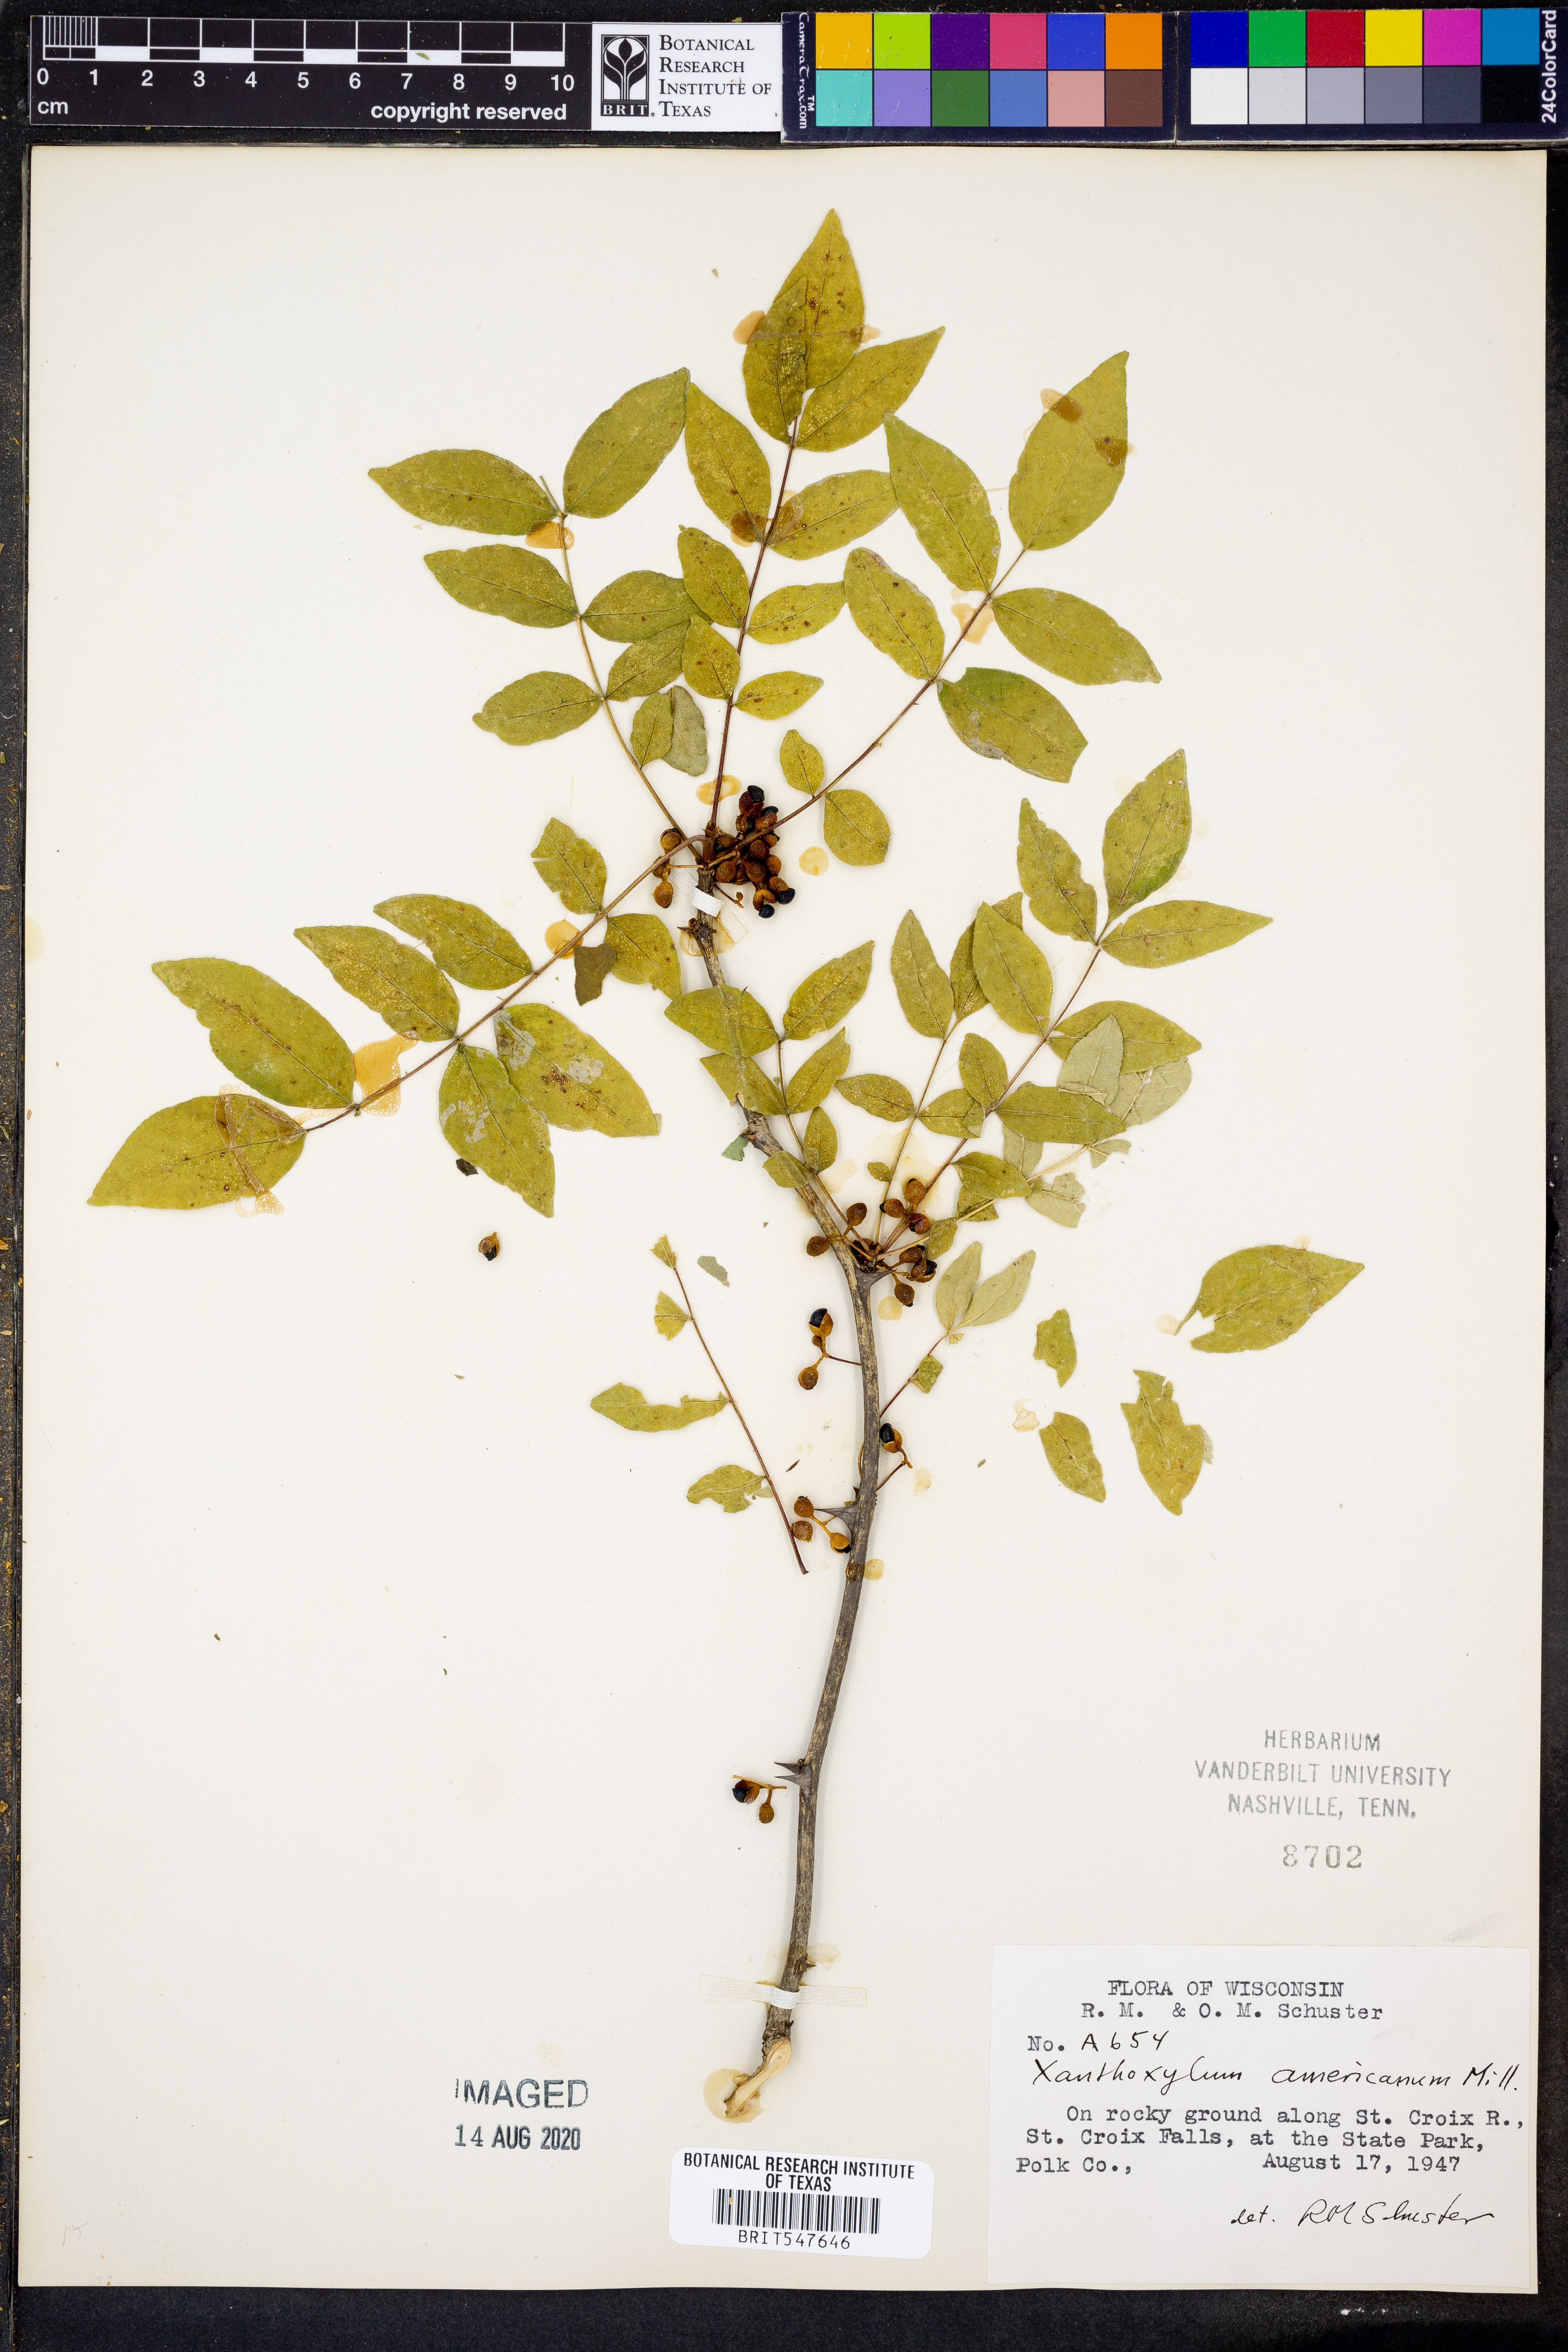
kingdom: Plantae
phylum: Tracheophyta
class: Magnoliopsida
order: Sapindales
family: Rutaceae
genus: Zanthoxylum
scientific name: Zanthoxylum americanum
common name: Northern prickly-ash
